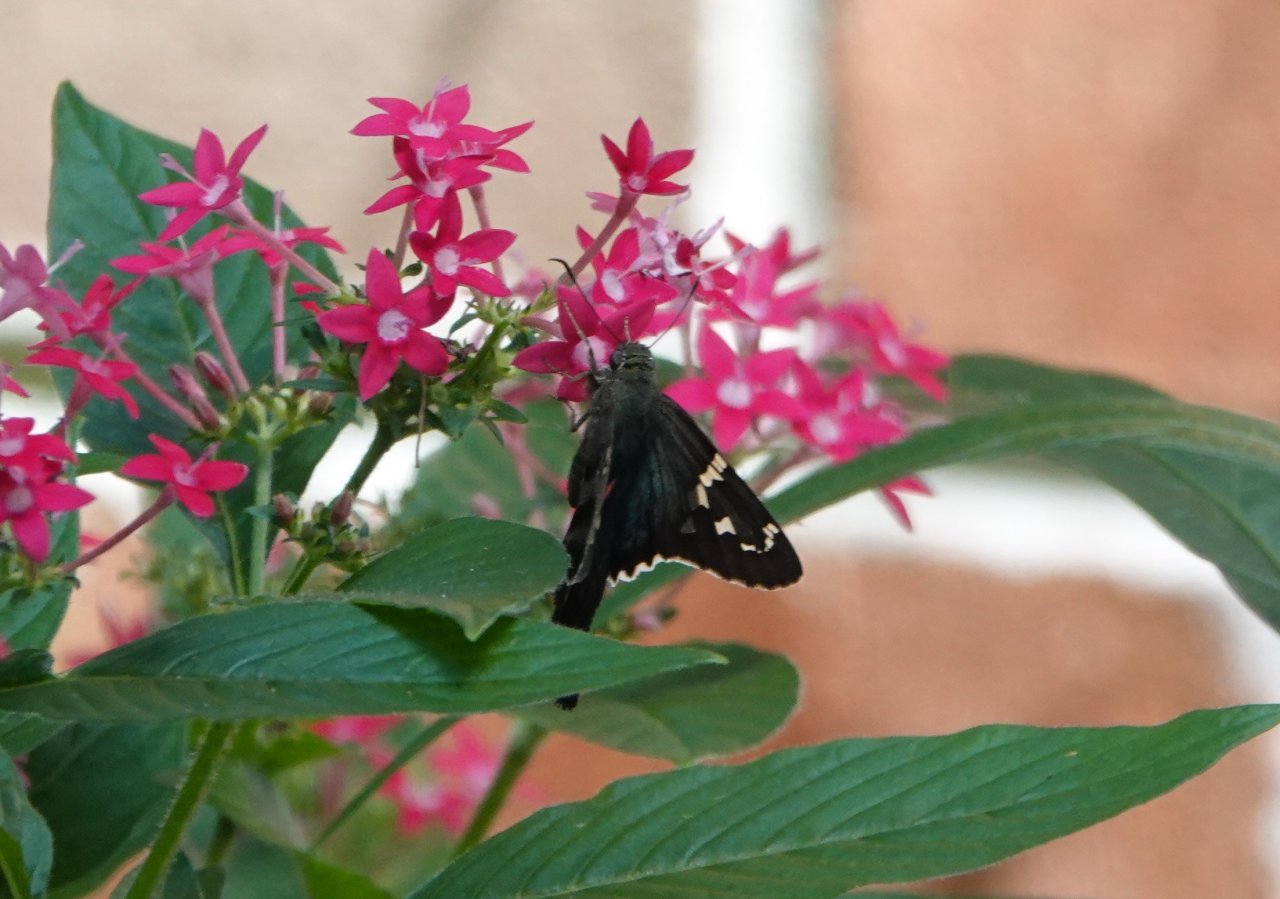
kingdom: Animalia
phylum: Arthropoda
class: Insecta
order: Lepidoptera
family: Hesperiidae
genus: Urbanus
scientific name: Urbanus proteus
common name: Long-tailed Skipper
